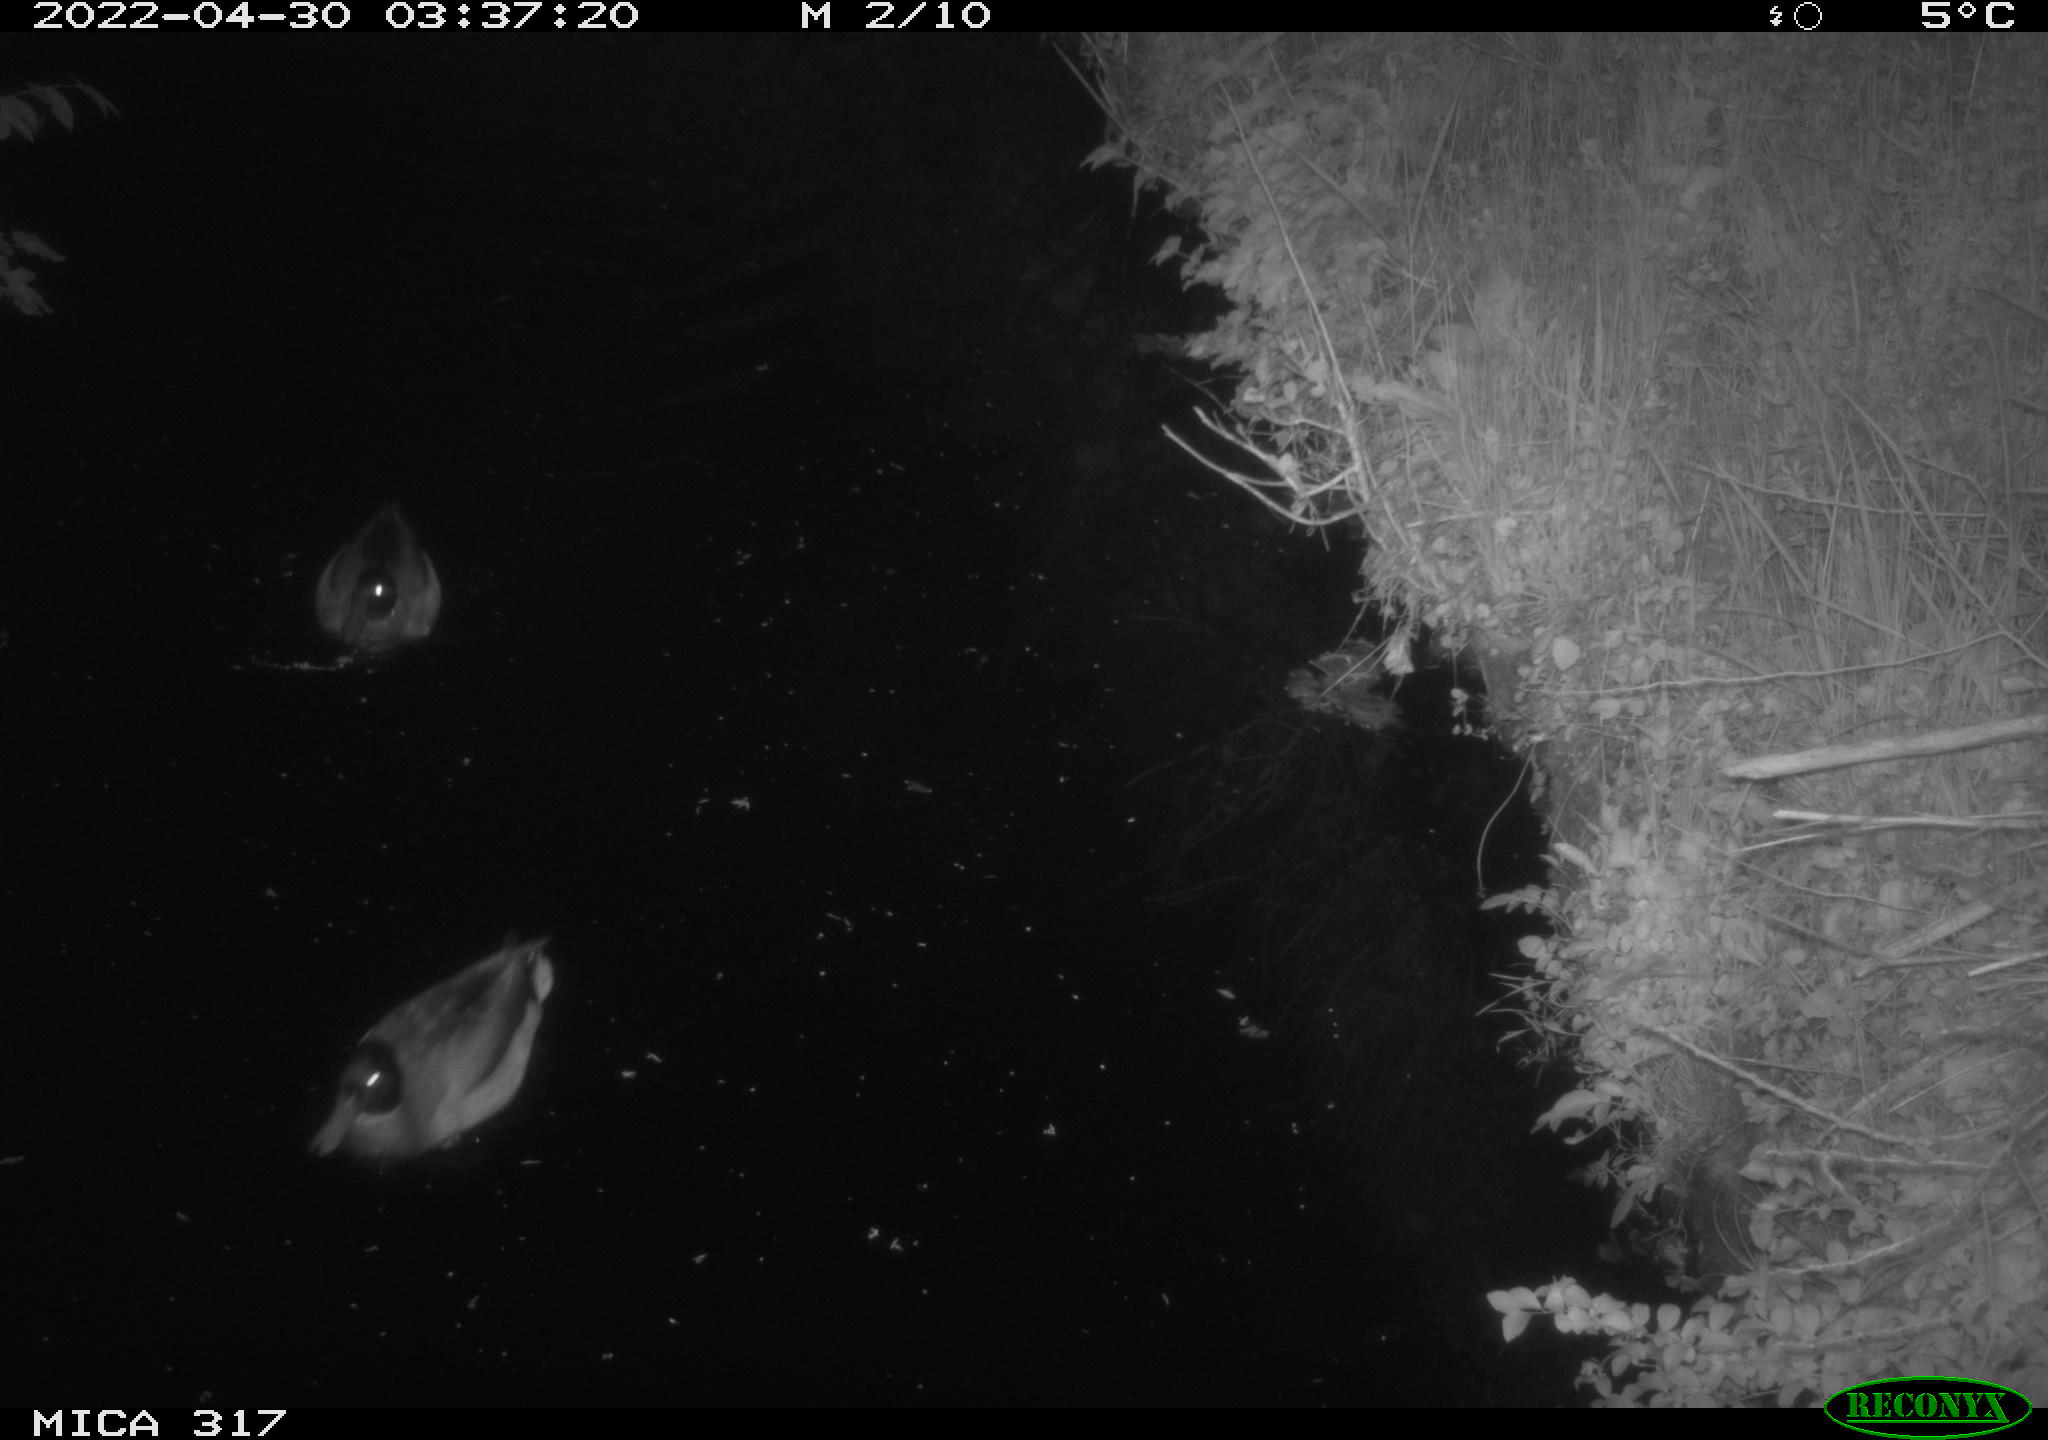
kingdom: Animalia
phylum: Chordata
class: Aves
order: Anseriformes
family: Anatidae
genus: Anas
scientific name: Anas platyrhynchos
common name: Mallard
